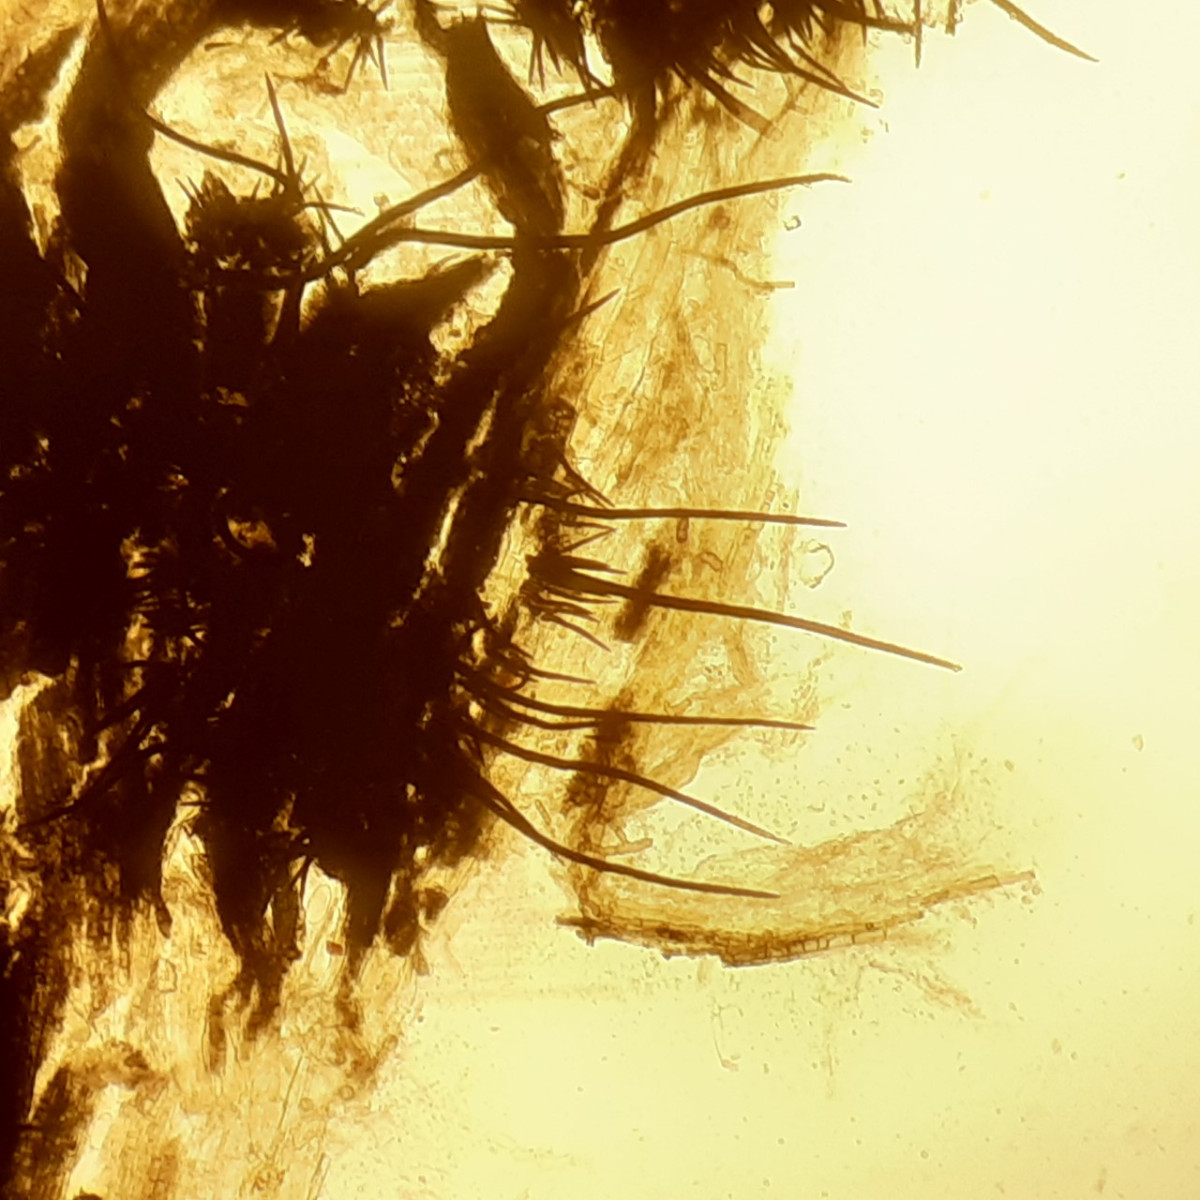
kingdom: Fungi
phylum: Ascomycota
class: Sordariomycetes
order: Glomerellales
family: Glomerellaceae
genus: Colletotrichum
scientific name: Colletotrichum
